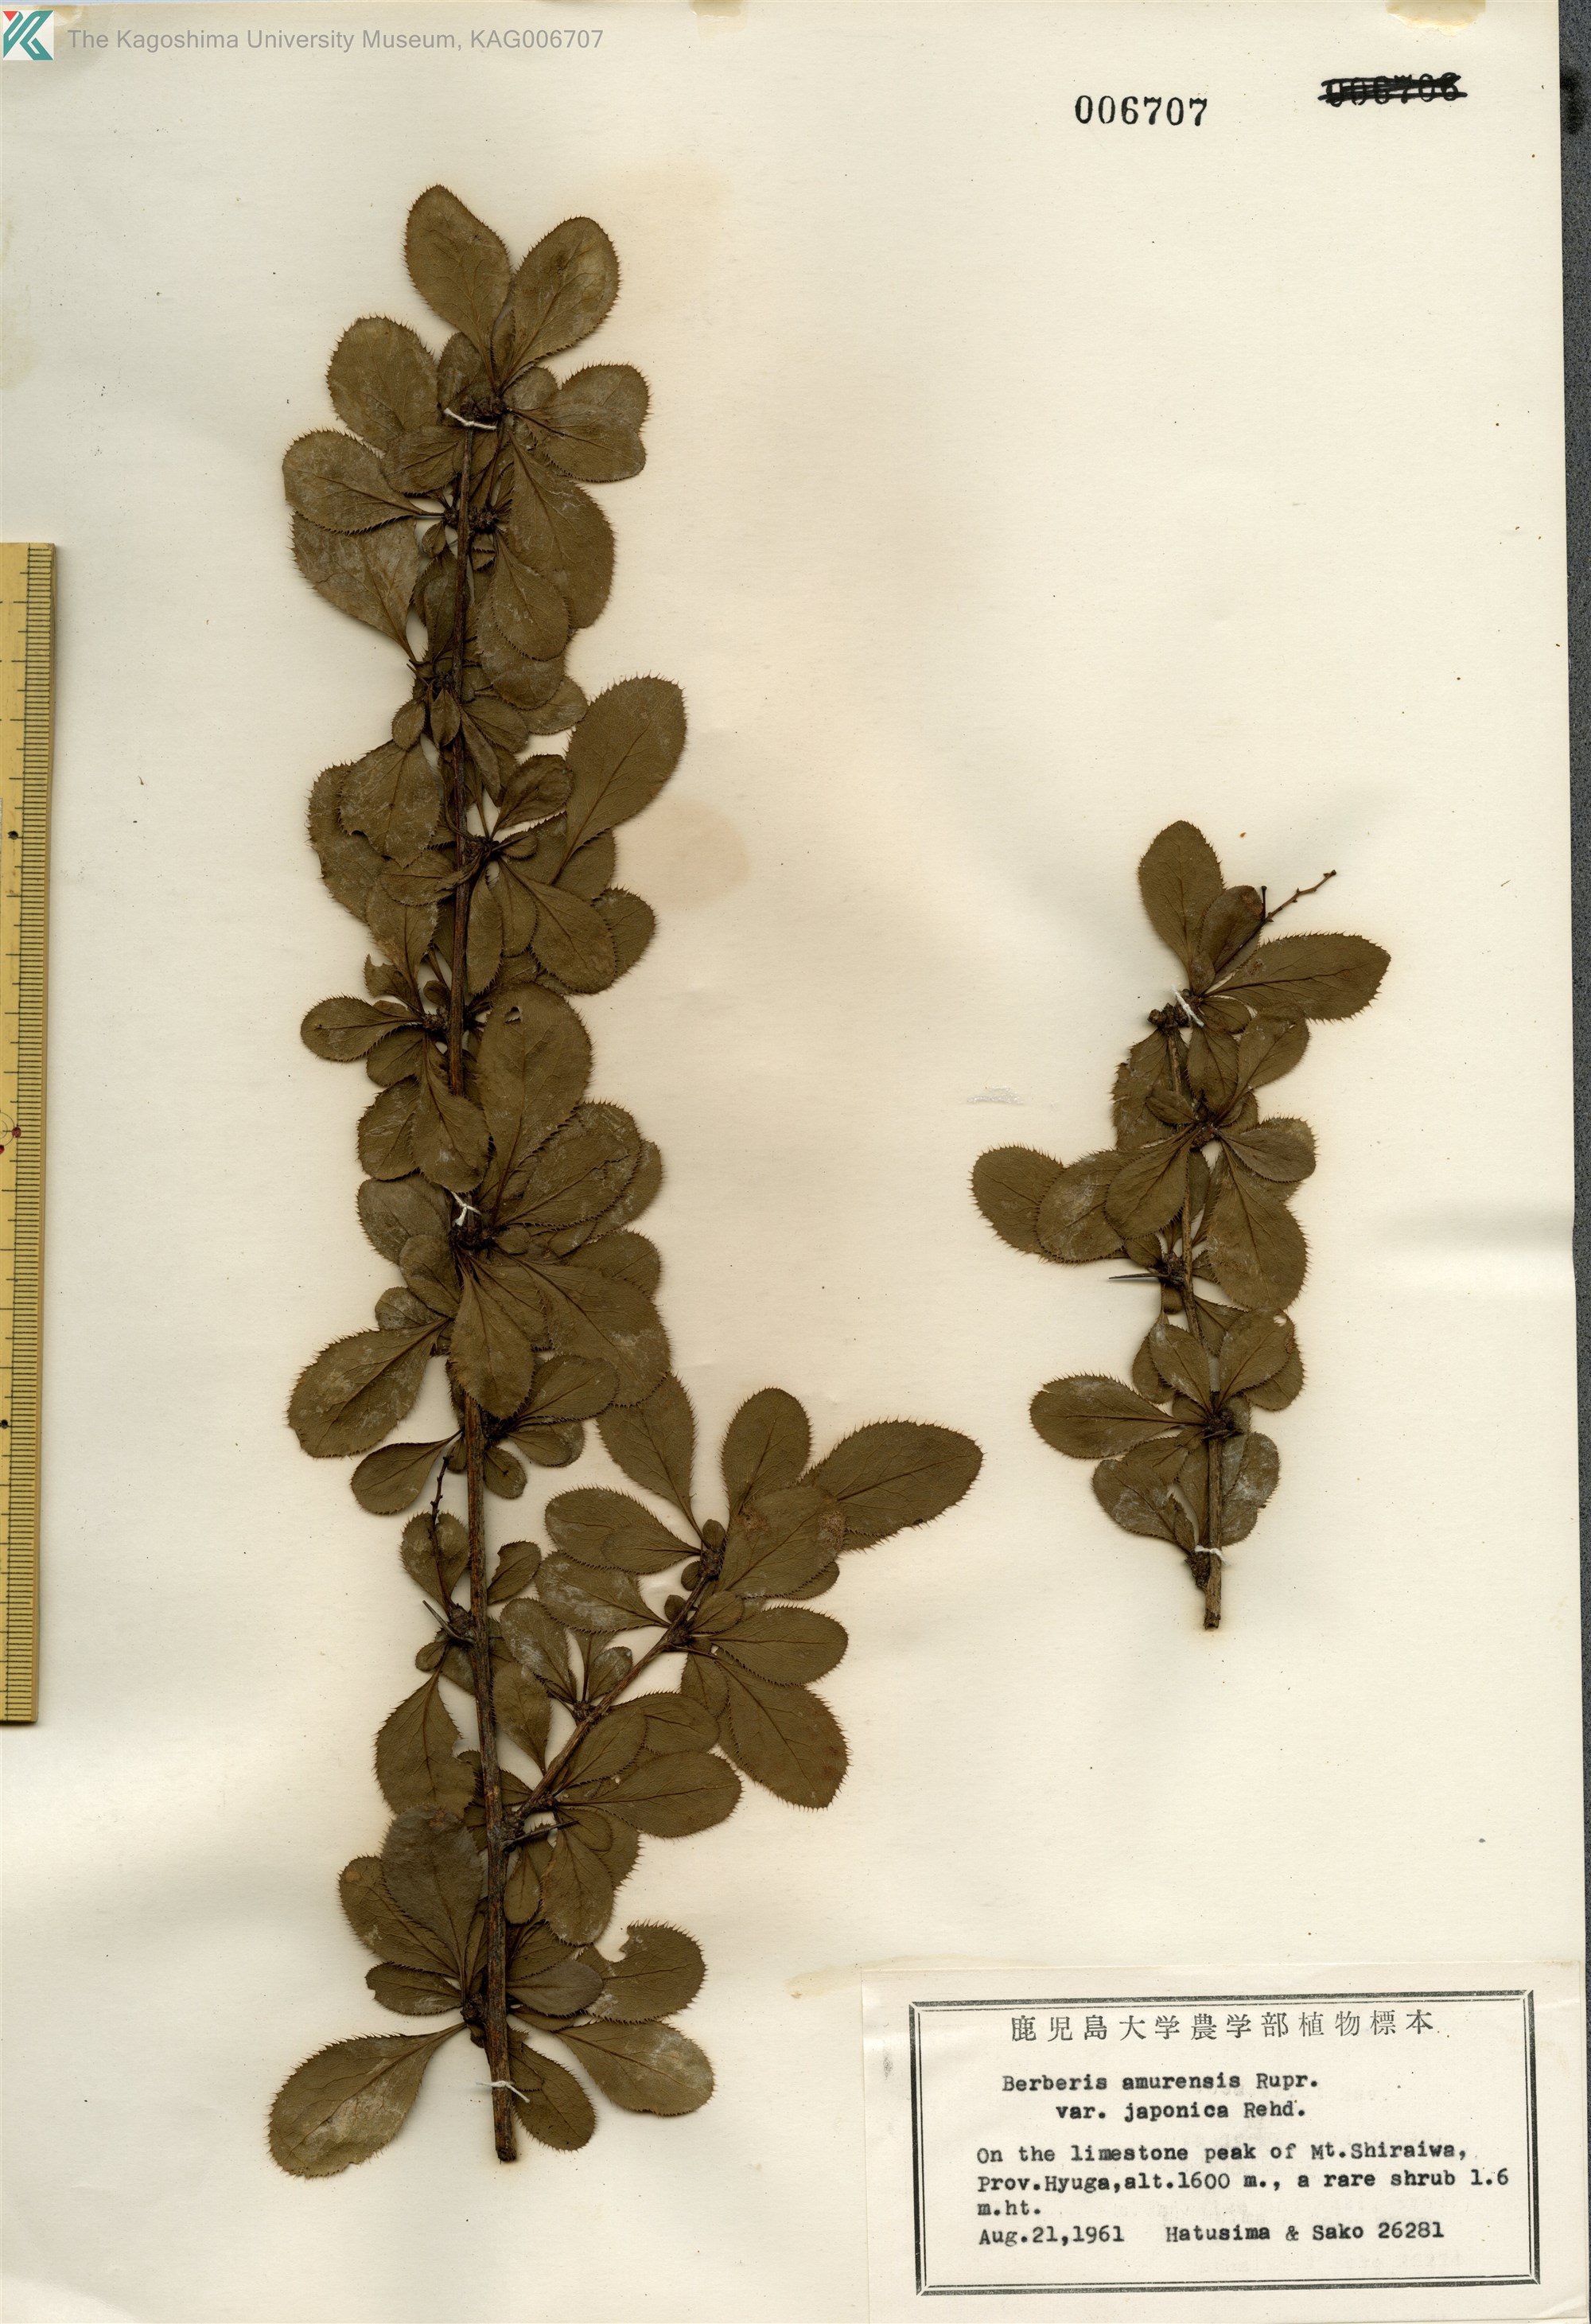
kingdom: Plantae
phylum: Tracheophyta
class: Magnoliopsida
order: Ranunculales
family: Berberidaceae
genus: Berberis
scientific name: Berberis amurensis
